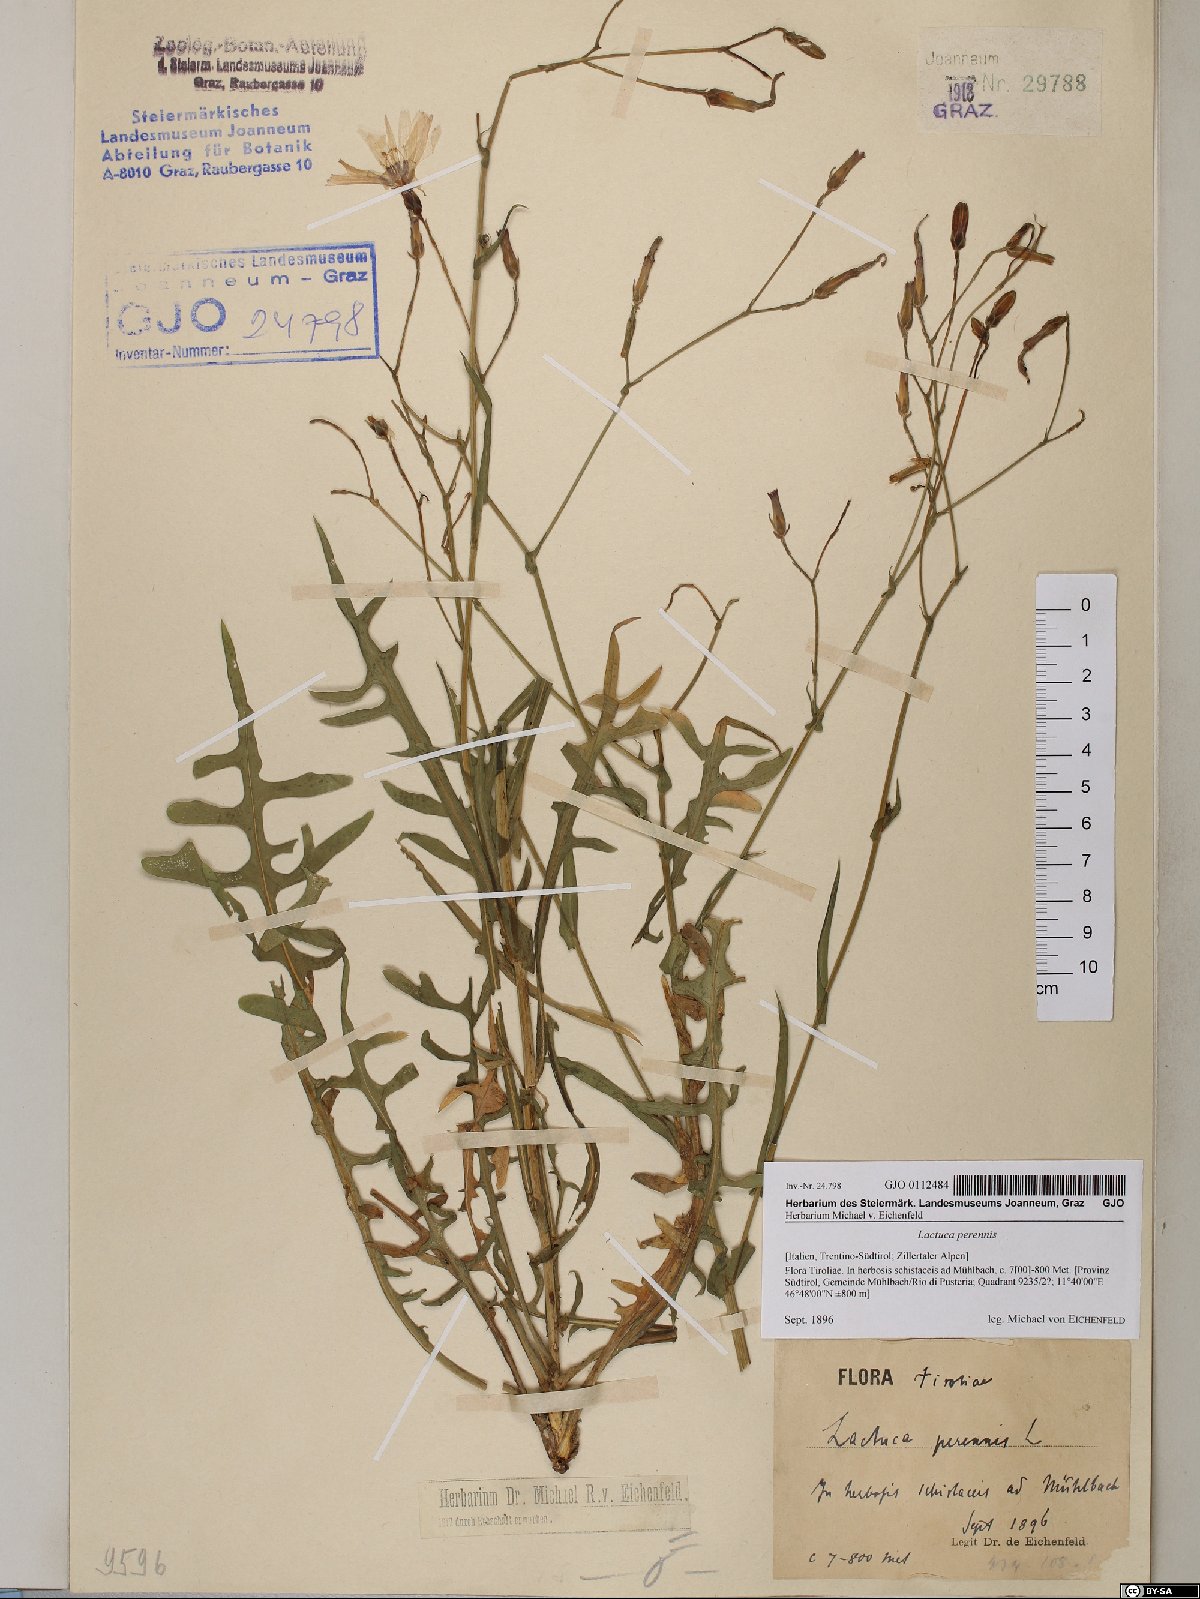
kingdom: Plantae
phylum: Tracheophyta
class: Magnoliopsida
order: Asterales
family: Asteraceae
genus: Lactuca
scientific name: Lactuca perennis
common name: Mountain lettuce
